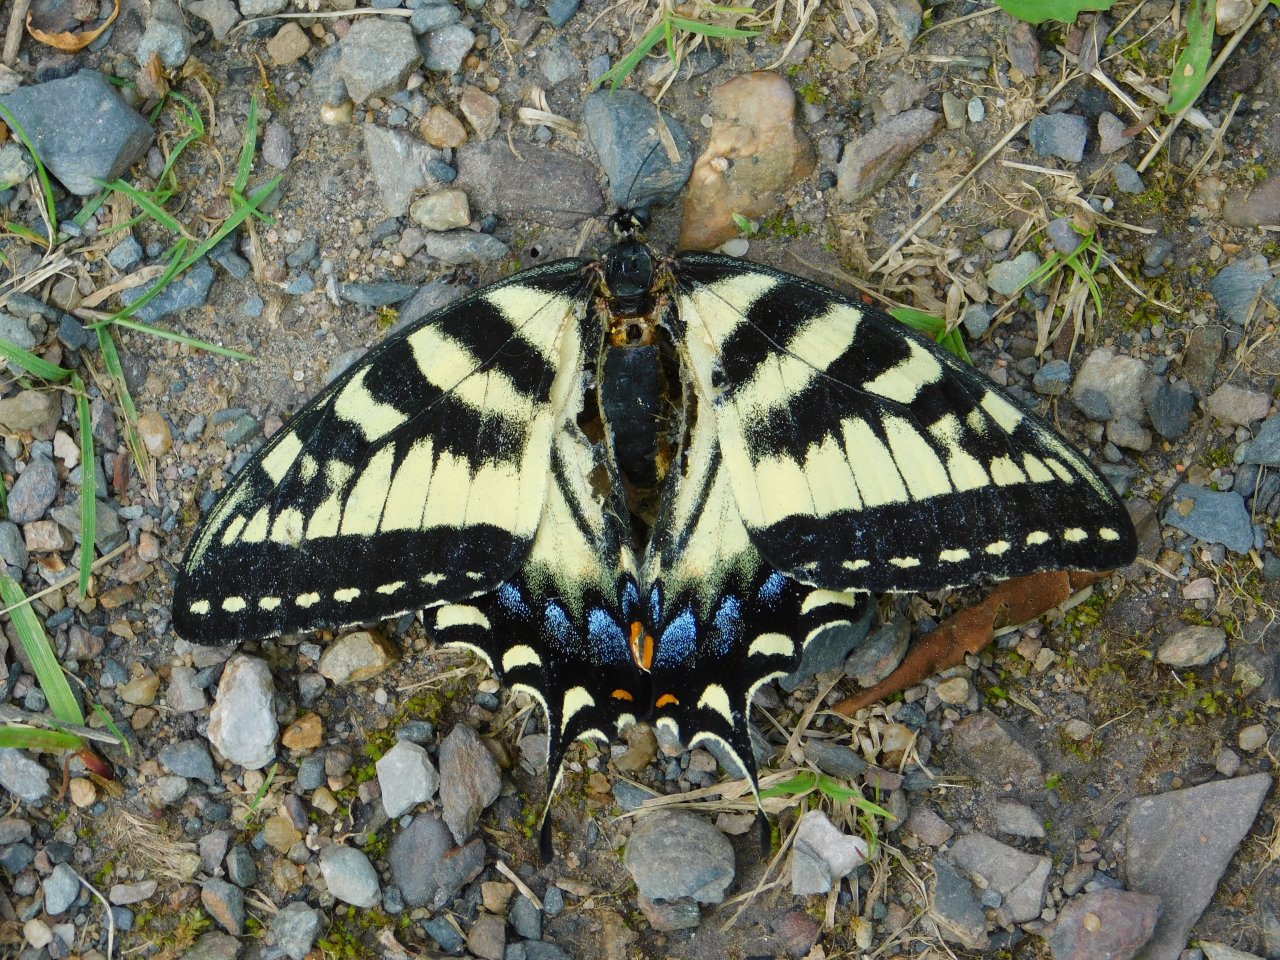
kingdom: Animalia
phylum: Arthropoda
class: Insecta
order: Lepidoptera
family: Papilionidae
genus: Pterourus
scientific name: Pterourus canadensis
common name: Canadian Tiger Swallowtail
